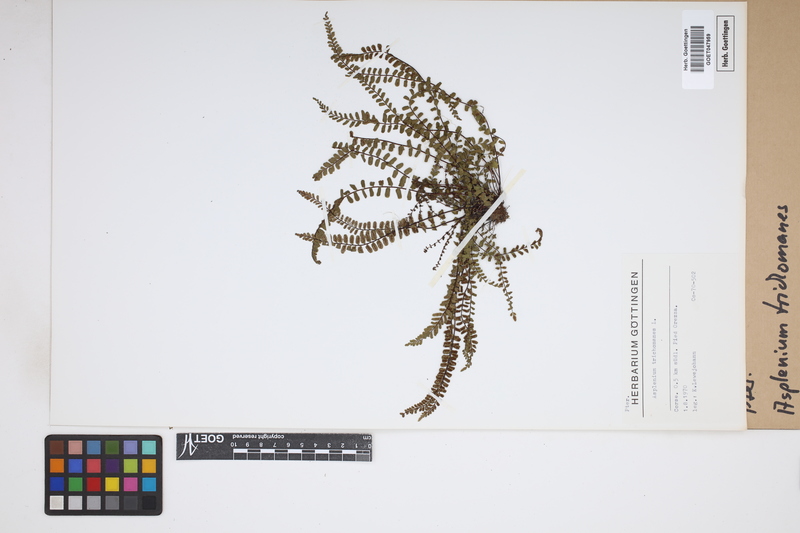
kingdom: Plantae
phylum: Tracheophyta
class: Polypodiopsida
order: Polypodiales
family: Aspleniaceae
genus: Asplenium
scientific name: Asplenium trichomanes
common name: Maidenhair spleenwort
